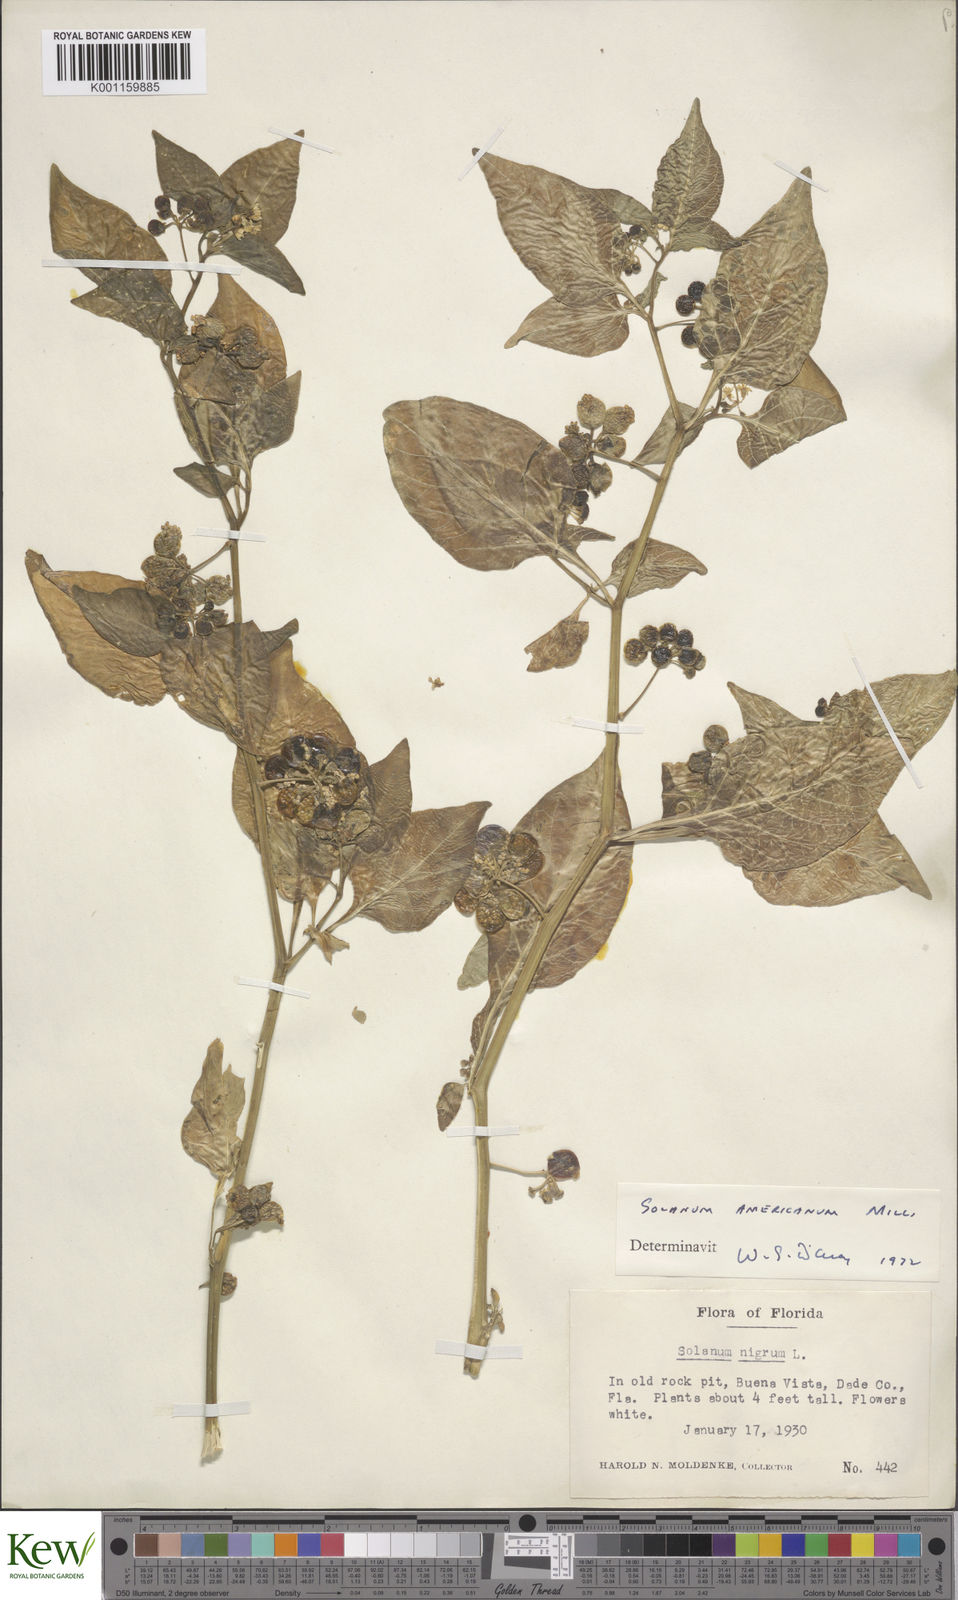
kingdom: Plantae
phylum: Tracheophyta
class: Magnoliopsida
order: Solanales
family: Solanaceae
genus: Solanum
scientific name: Solanum americanum
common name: American black nightshade
